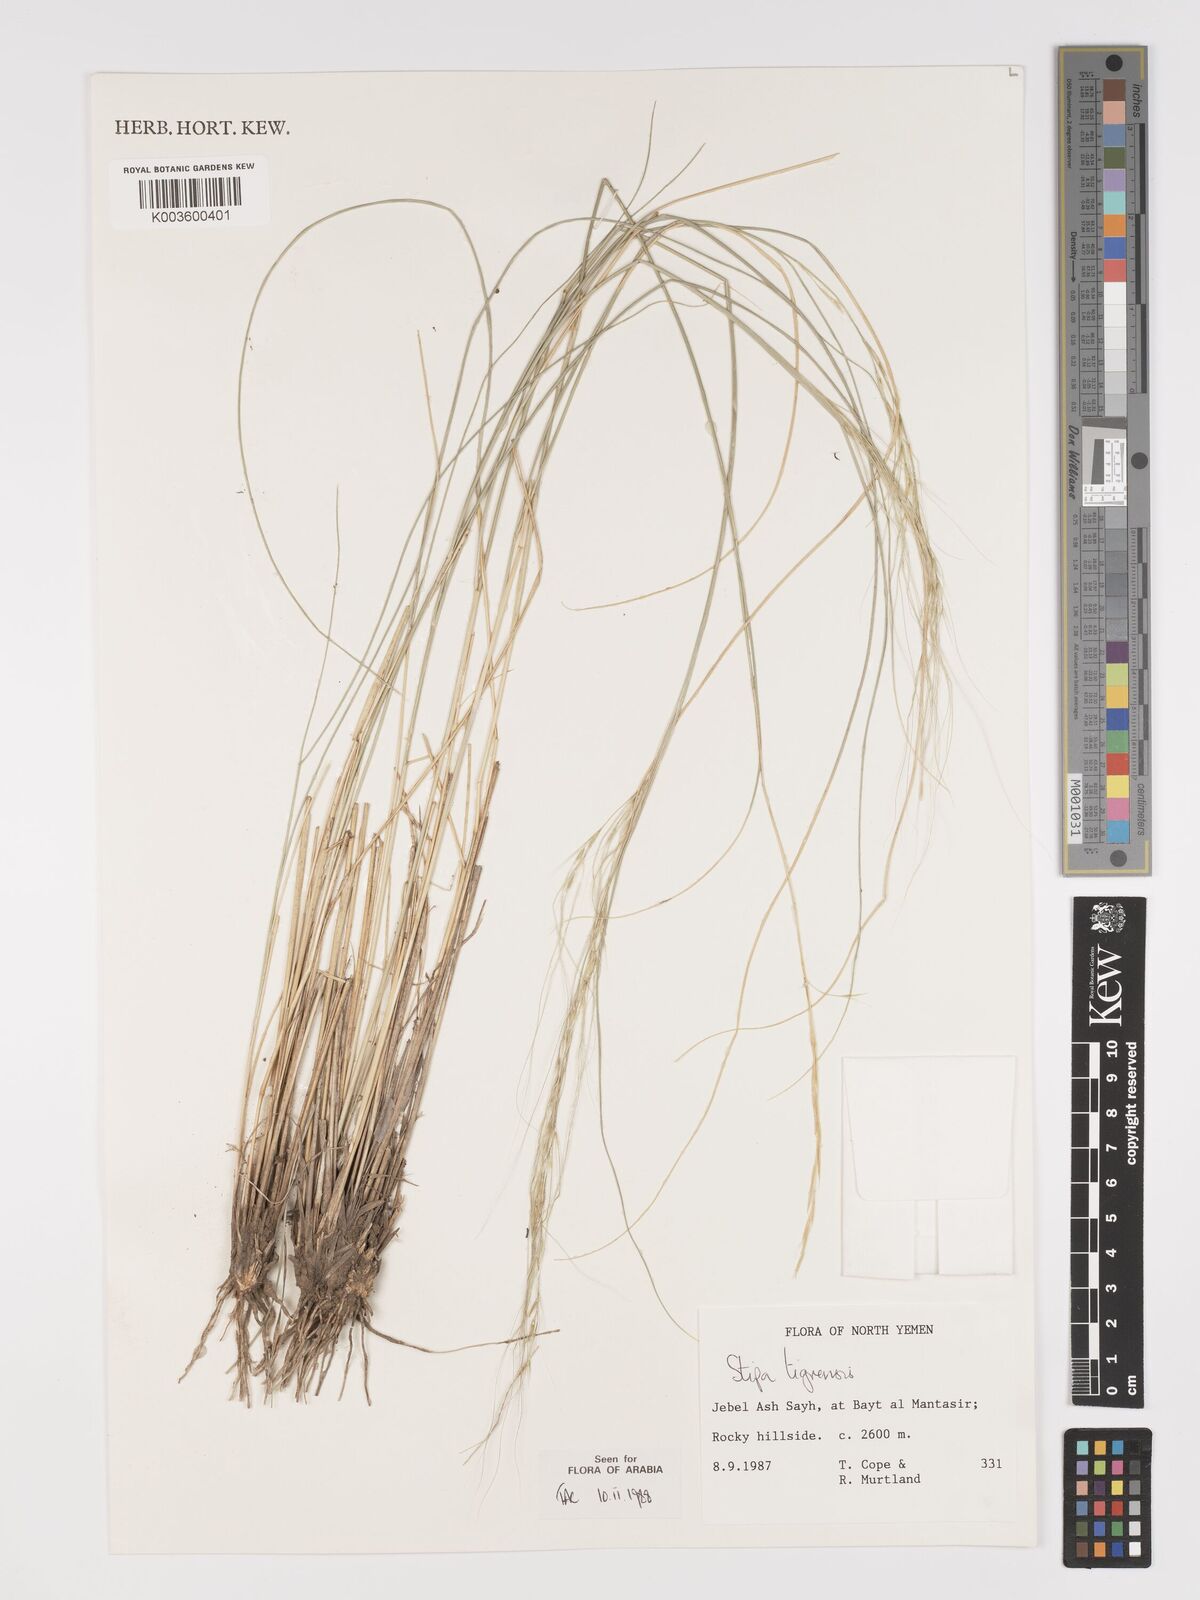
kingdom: Plantae
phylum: Tracheophyta
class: Liliopsida
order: Poales
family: Poaceae
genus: Stipa
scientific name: Stipa tigrensis
